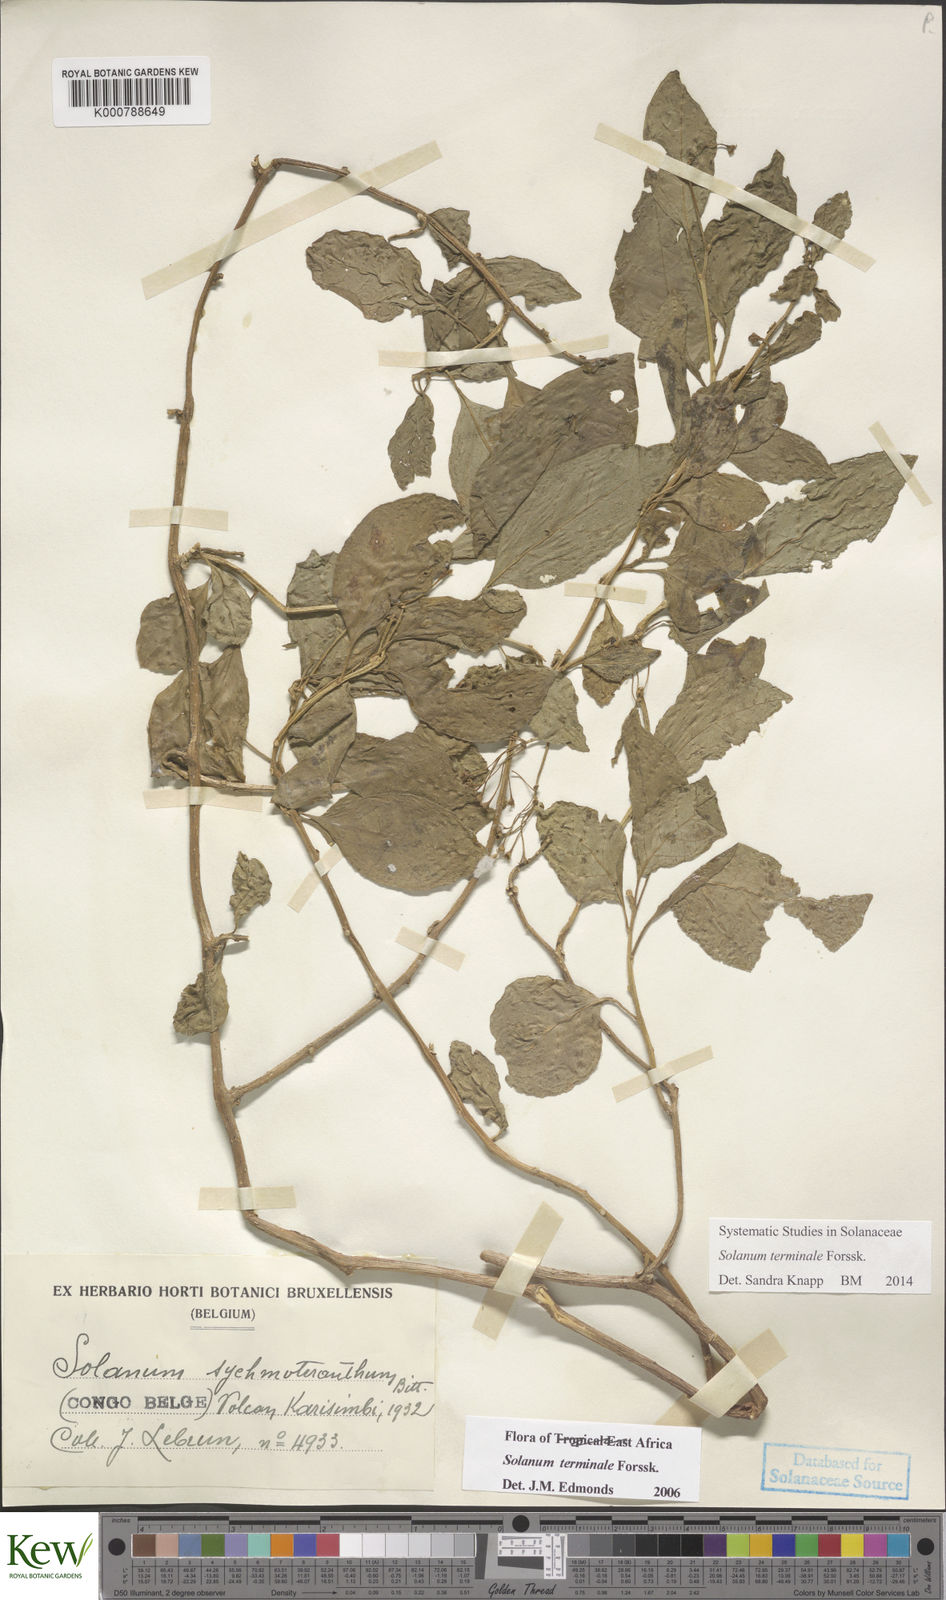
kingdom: Plantae
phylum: Tracheophyta
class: Magnoliopsida
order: Solanales
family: Solanaceae
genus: Solanum
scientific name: Solanum terminale
